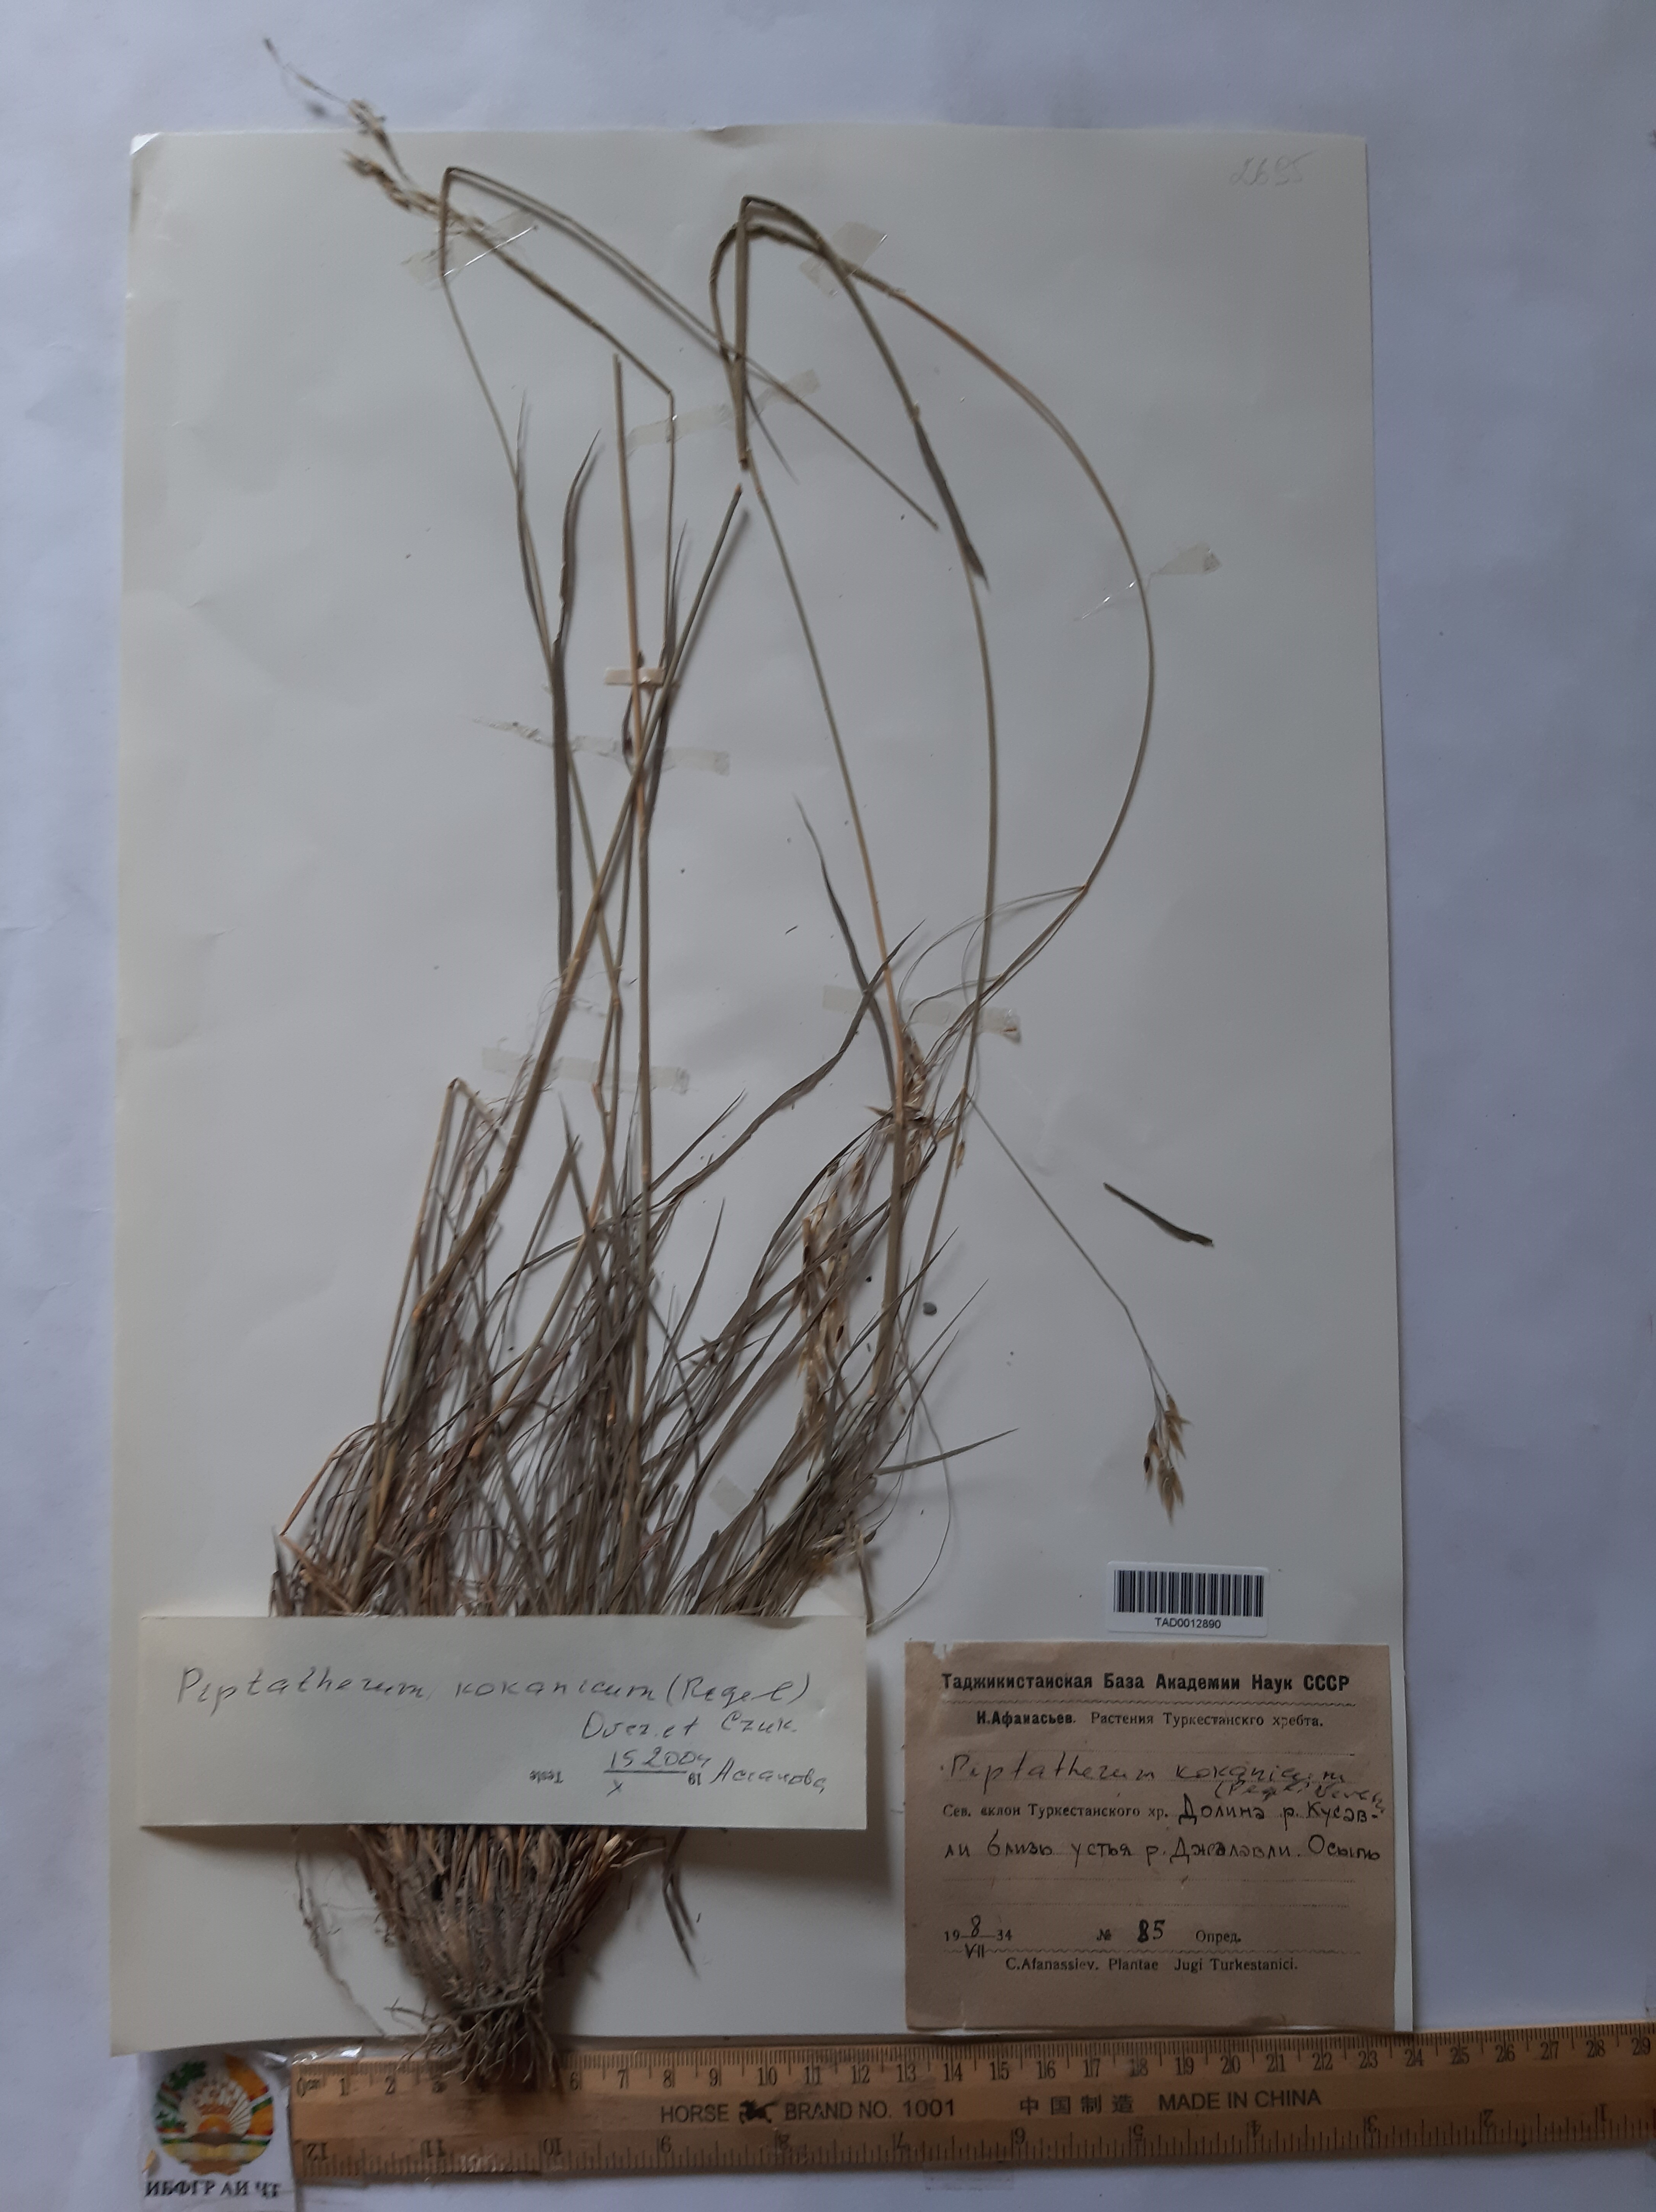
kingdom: Plantae
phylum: Tracheophyta
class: Liliopsida
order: Poales
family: Poaceae
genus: Piptatherum
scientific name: Piptatherum songaricum
